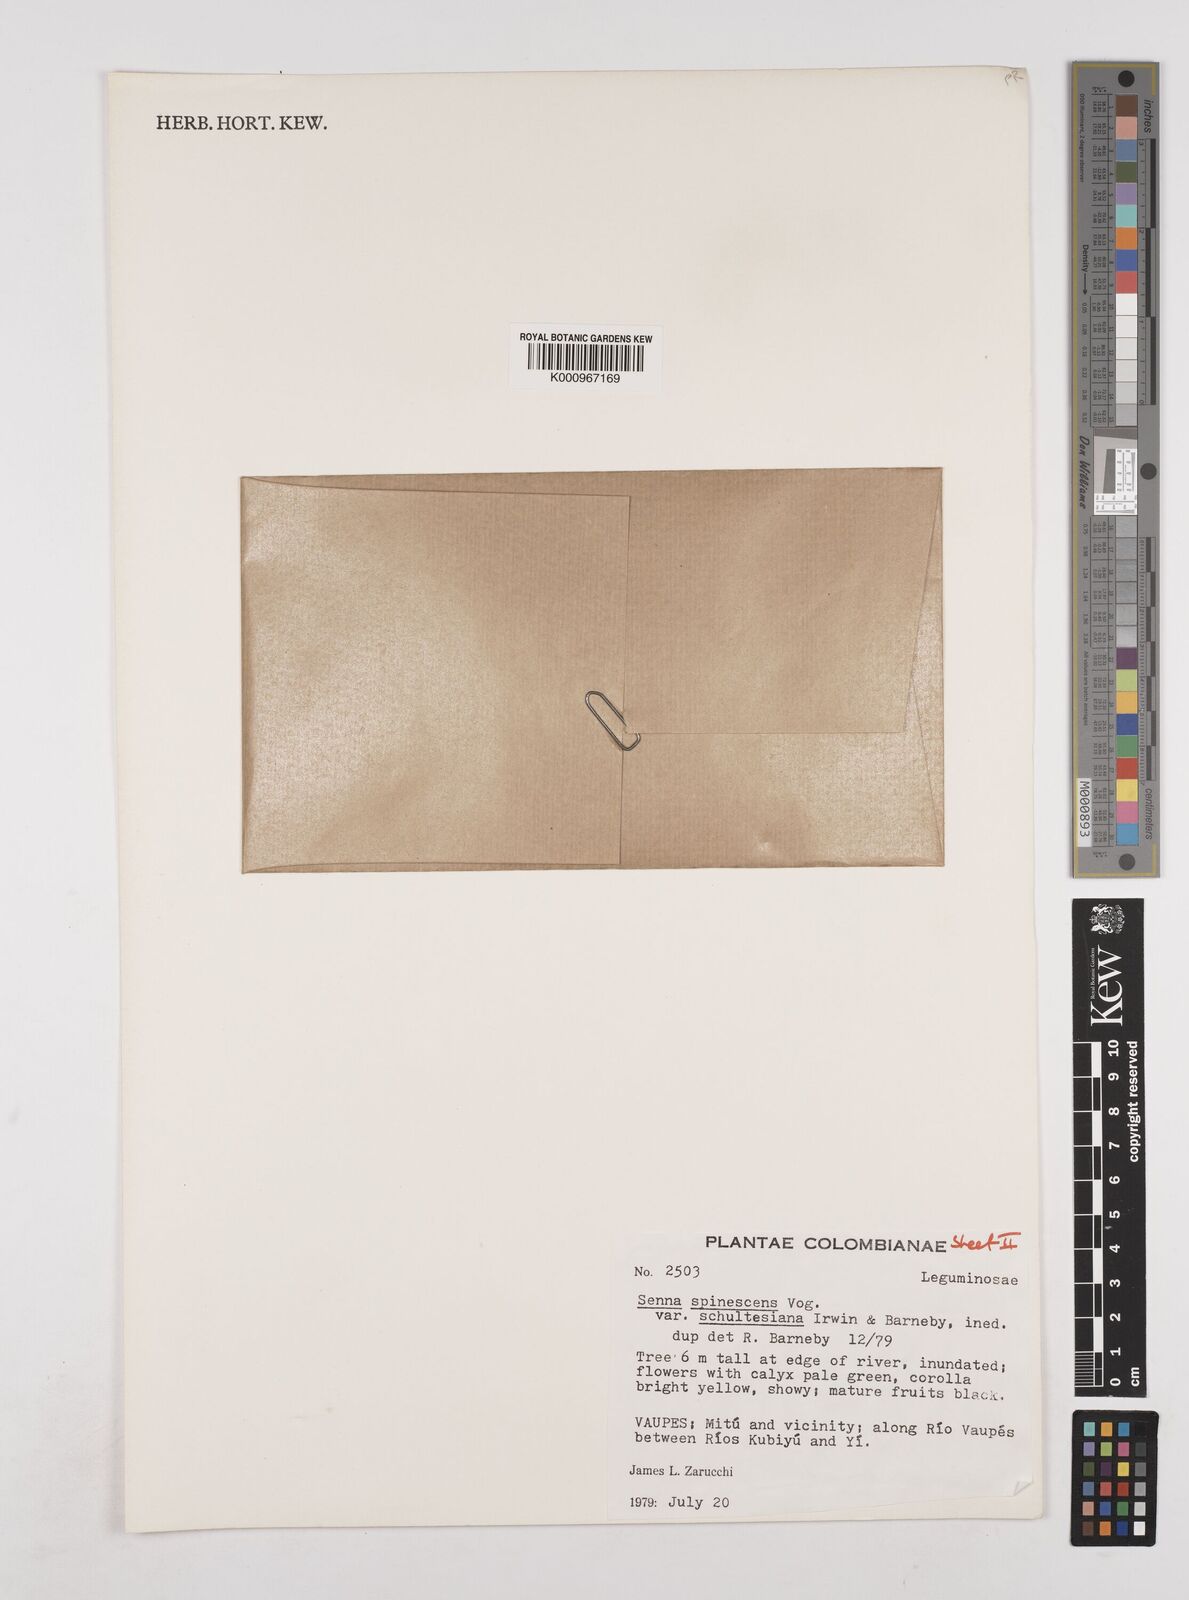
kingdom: Plantae
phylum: Tracheophyta
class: Magnoliopsida
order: Fabales
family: Fabaceae
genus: Senna
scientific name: Senna spinescens
